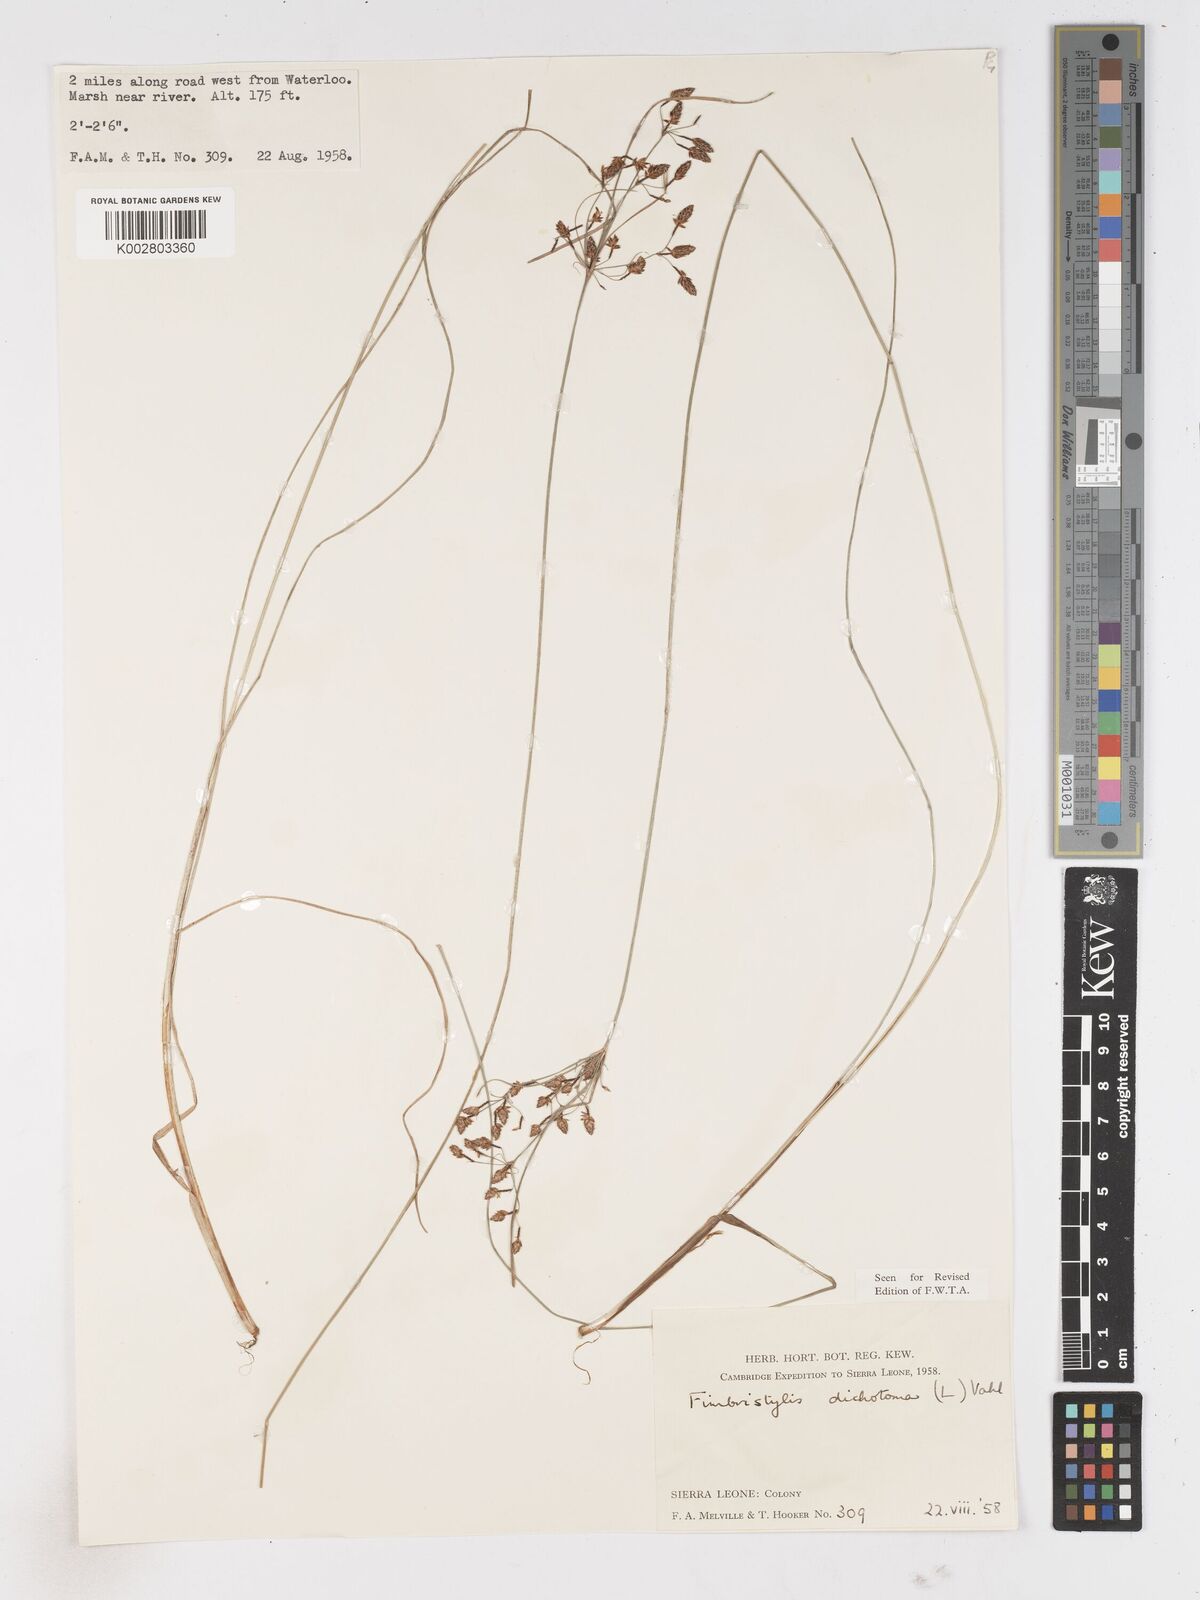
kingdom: Plantae
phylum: Tracheophyta
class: Liliopsida
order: Poales
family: Cyperaceae
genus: Fimbristylis
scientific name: Fimbristylis dichotoma
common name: Forked fimbry
